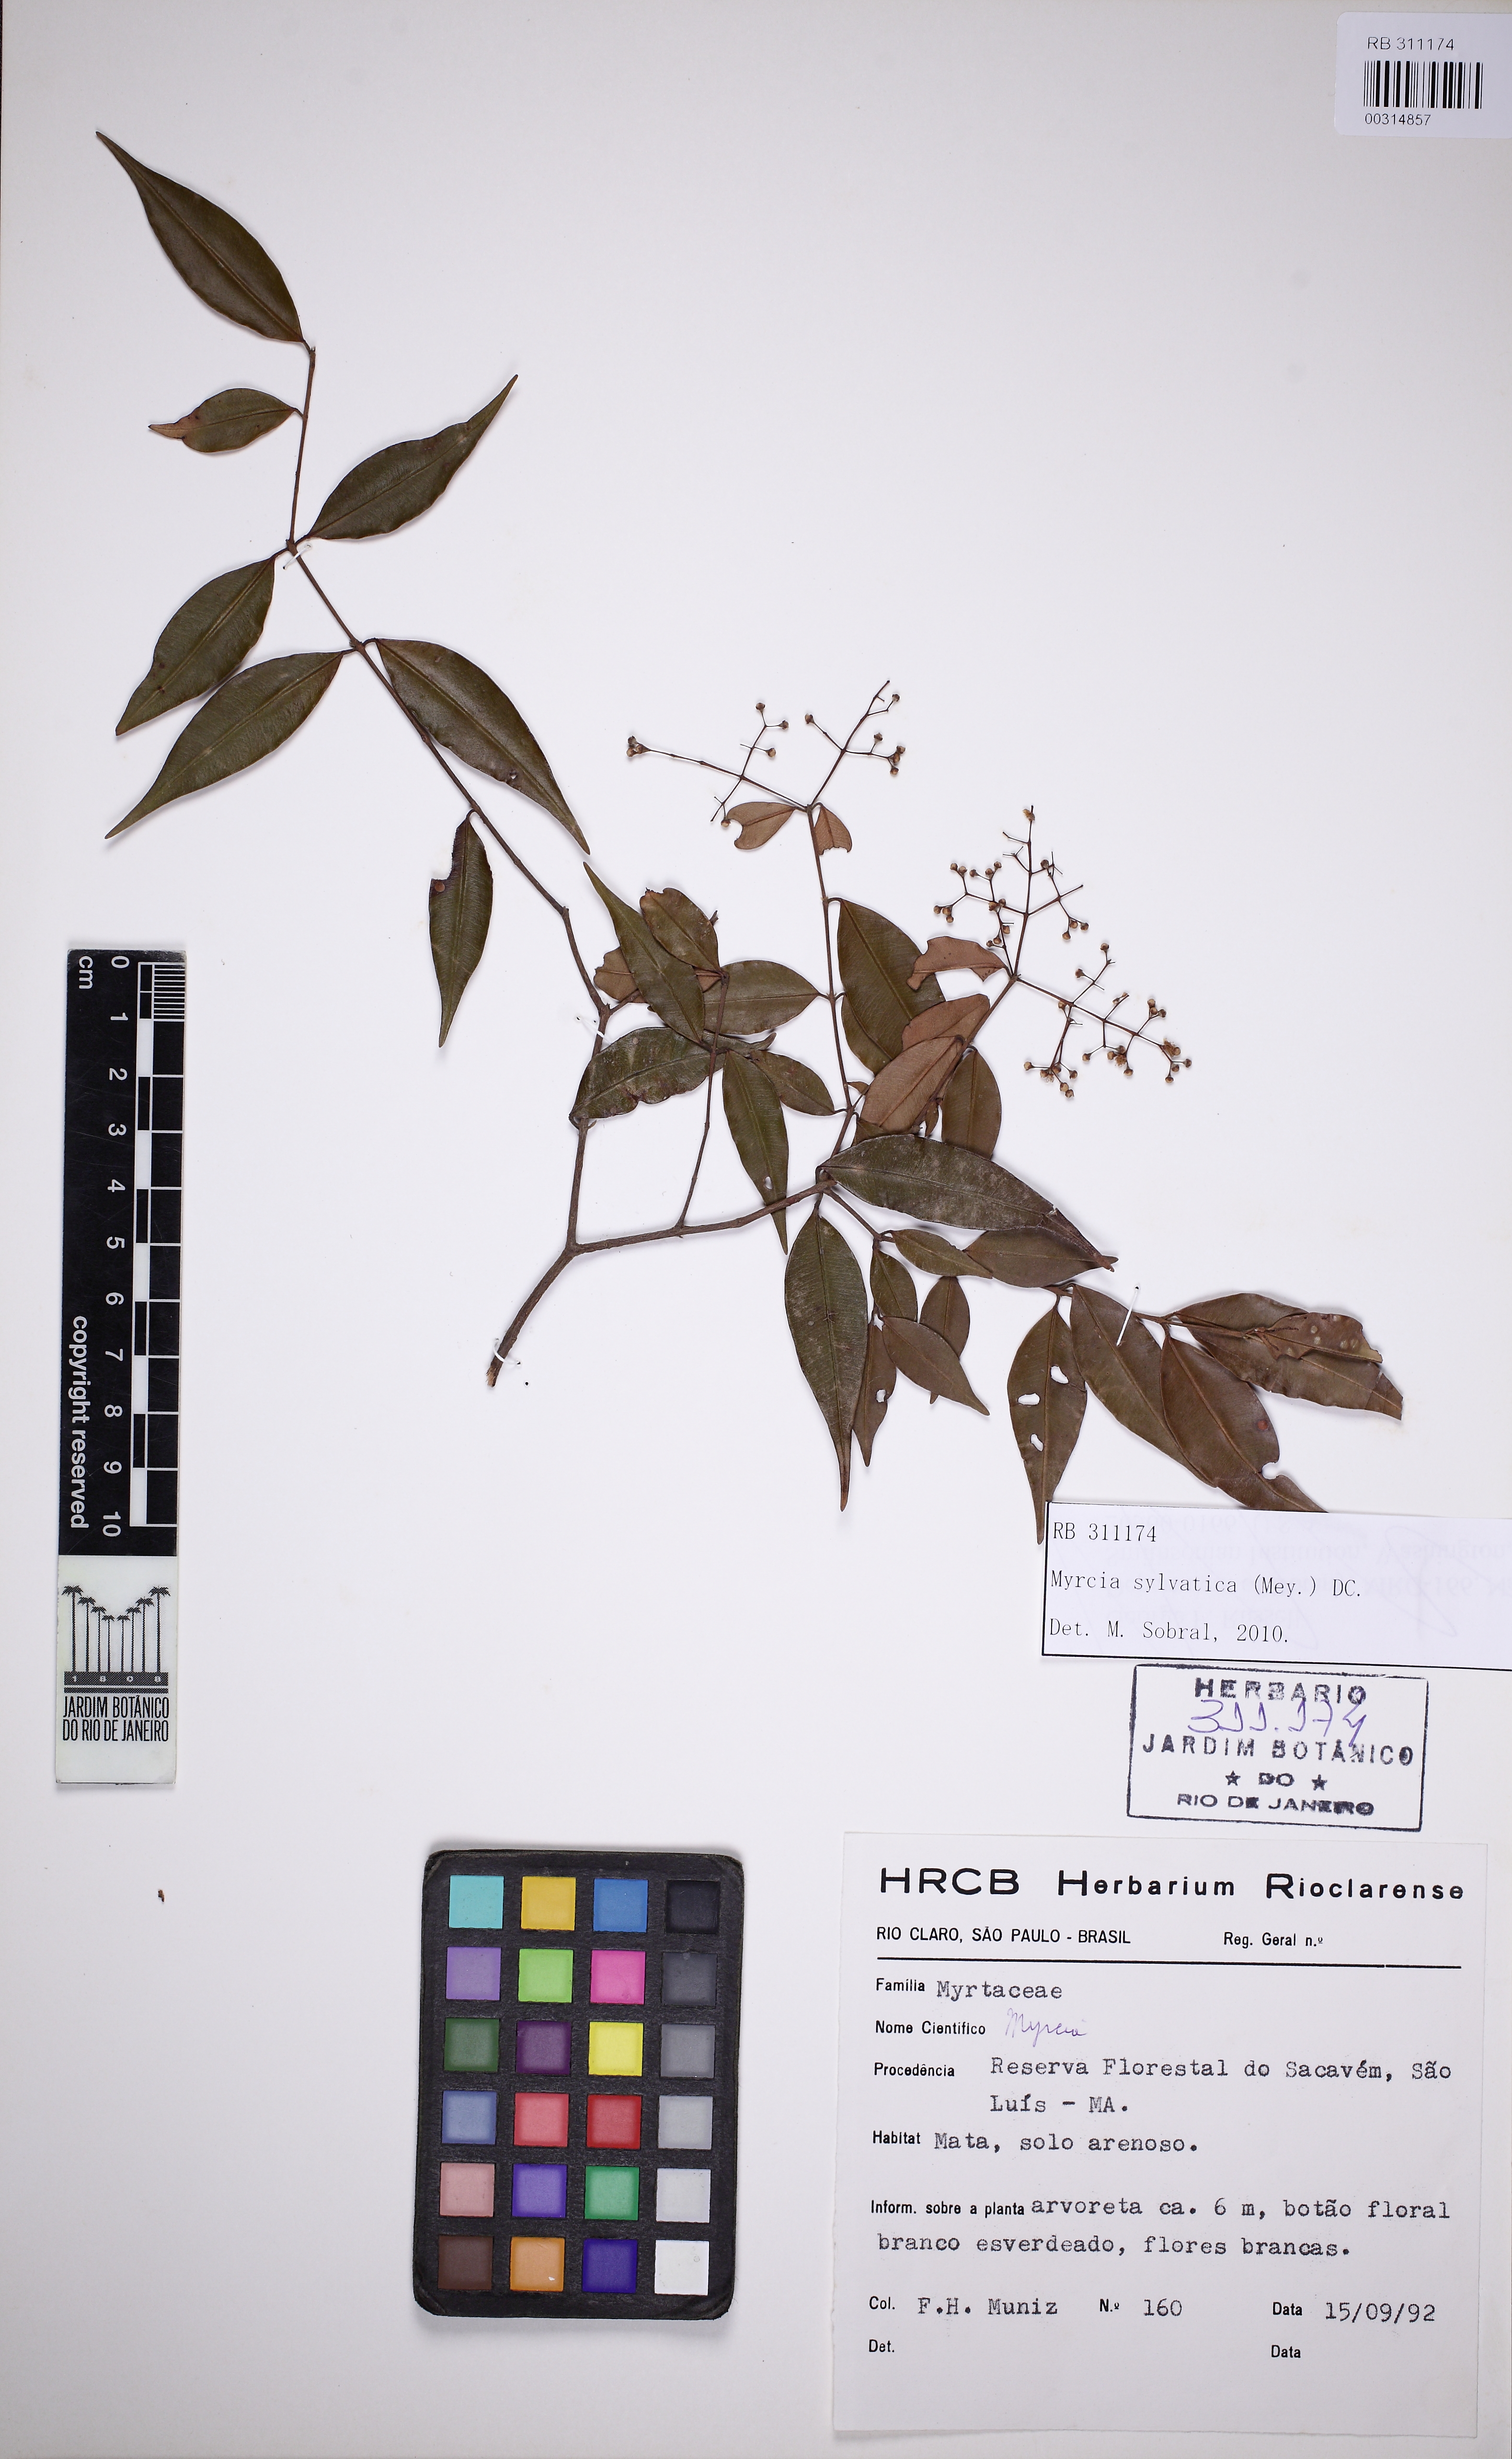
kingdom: Plantae
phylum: Tracheophyta
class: Magnoliopsida
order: Myrtales
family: Myrtaceae
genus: Myrcia
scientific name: Myrcia sylvatica
